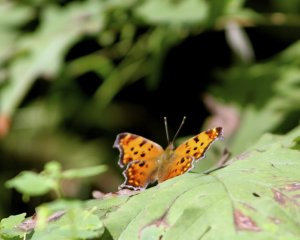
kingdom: Animalia
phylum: Arthropoda
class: Insecta
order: Lepidoptera
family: Nymphalidae
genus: Polygonia
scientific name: Polygonia comma
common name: Eastern Comma
